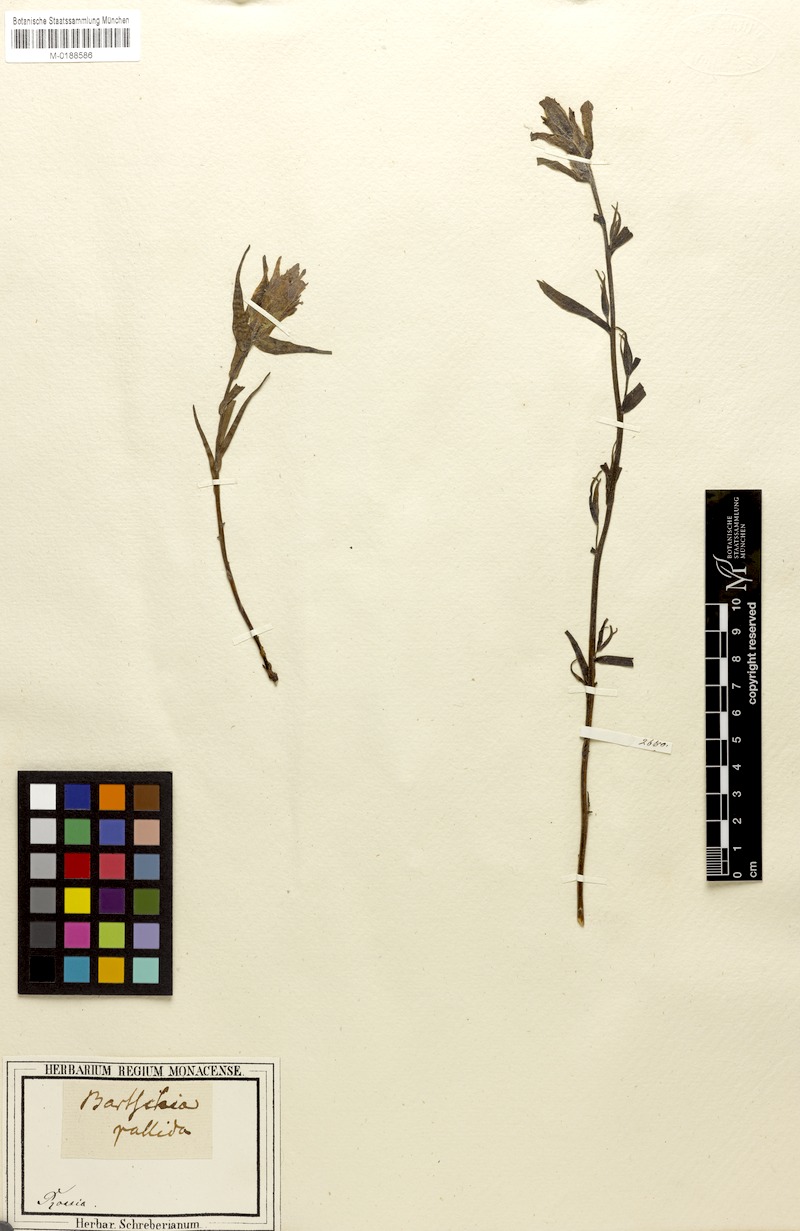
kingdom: Plantae
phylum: Tracheophyta
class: Magnoliopsida
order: Lamiales
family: Orobanchaceae
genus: Castilleja
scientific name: Castilleja pallida
